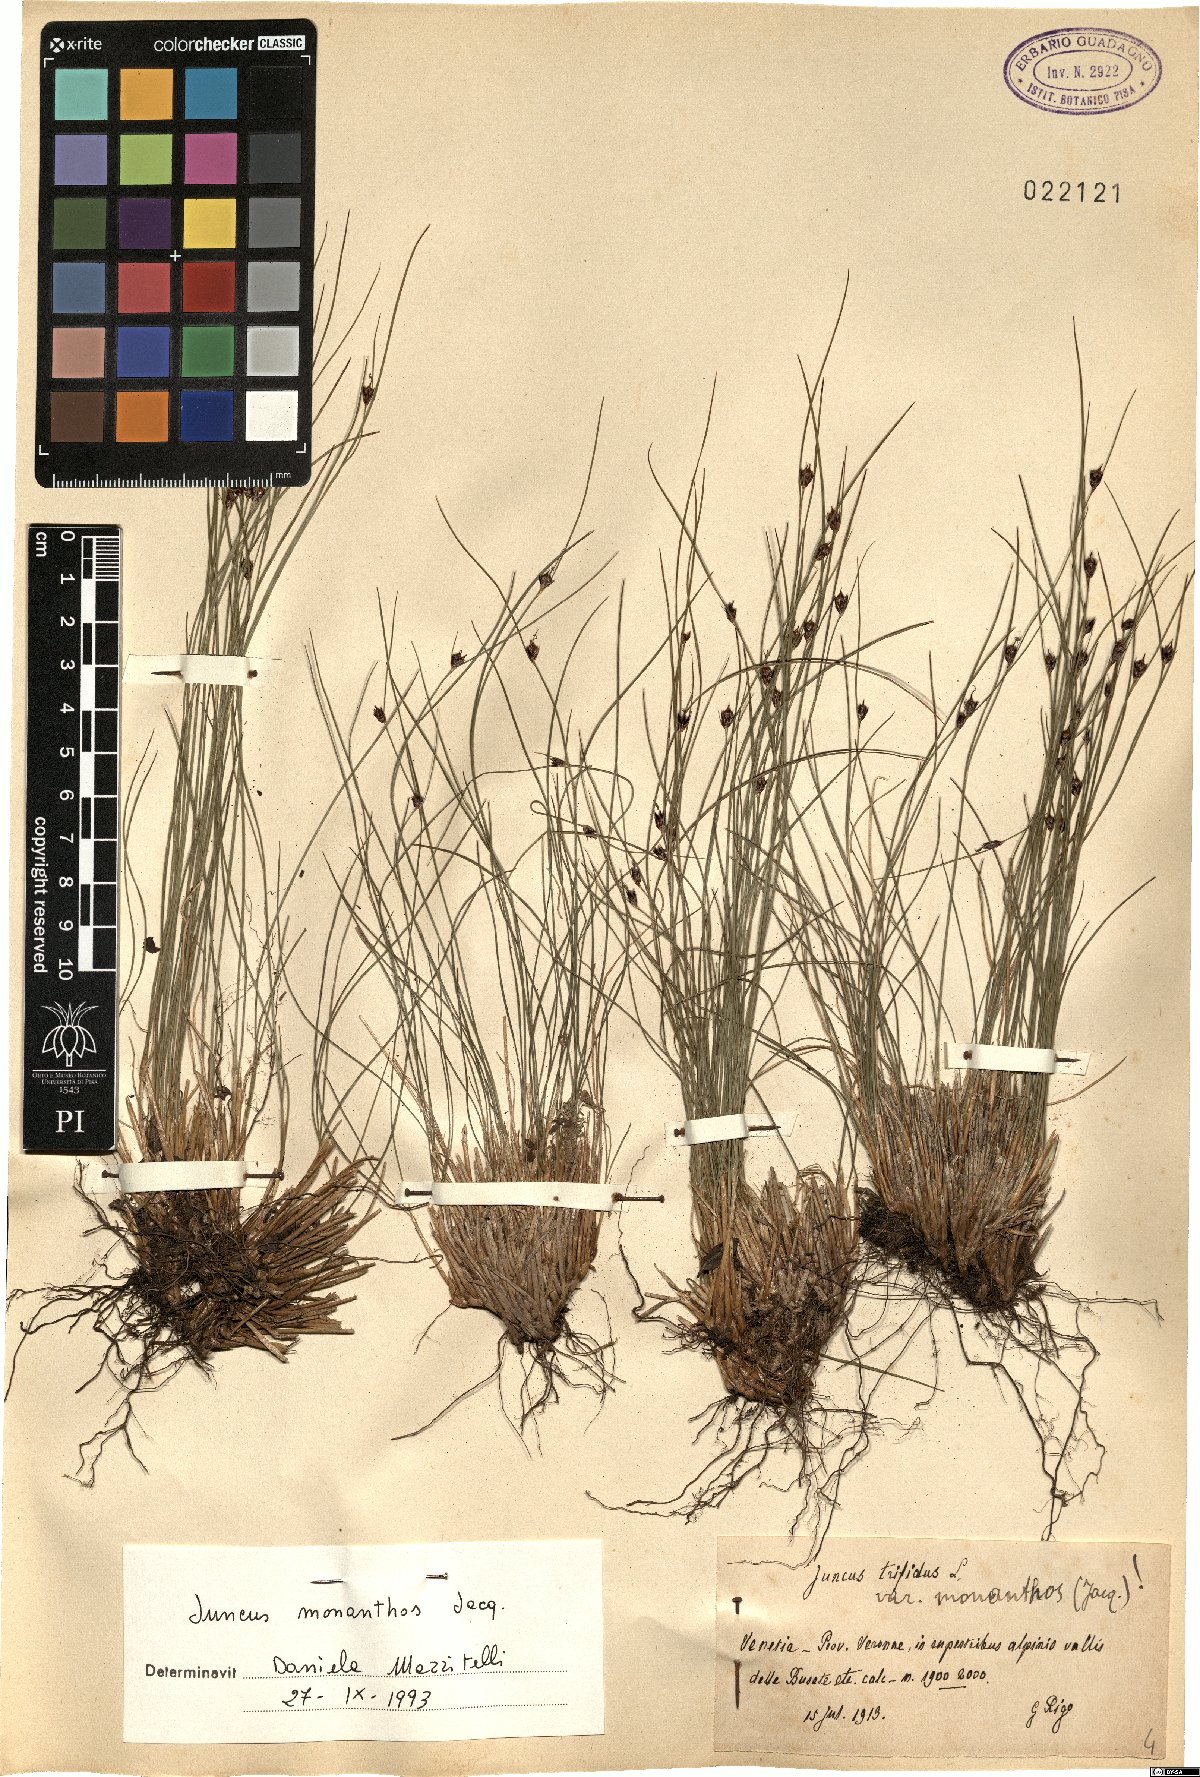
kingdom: Plantae
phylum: Tracheophyta
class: Liliopsida
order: Poales
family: Juncaceae
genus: Oreojuncus
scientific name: Oreojuncus monanthos
